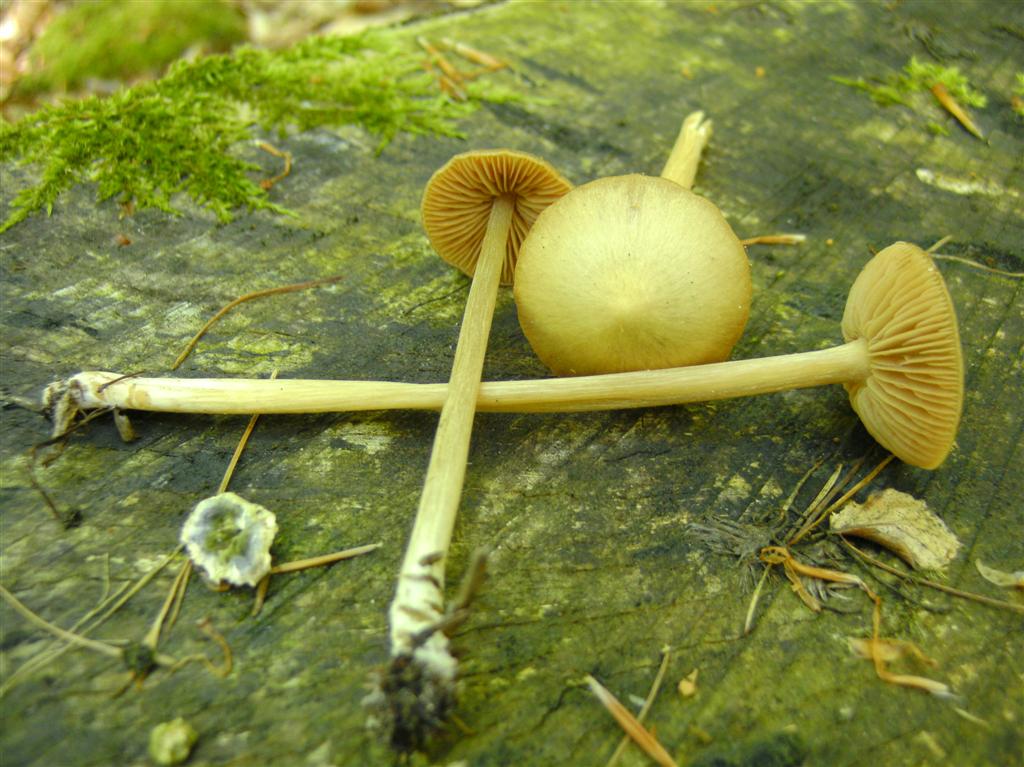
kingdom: Fungi
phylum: Basidiomycota
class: Agaricomycetes
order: Agaricales
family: Entolomataceae
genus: Entoloma
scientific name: Entoloma pallescens
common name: tidlig rødblad
